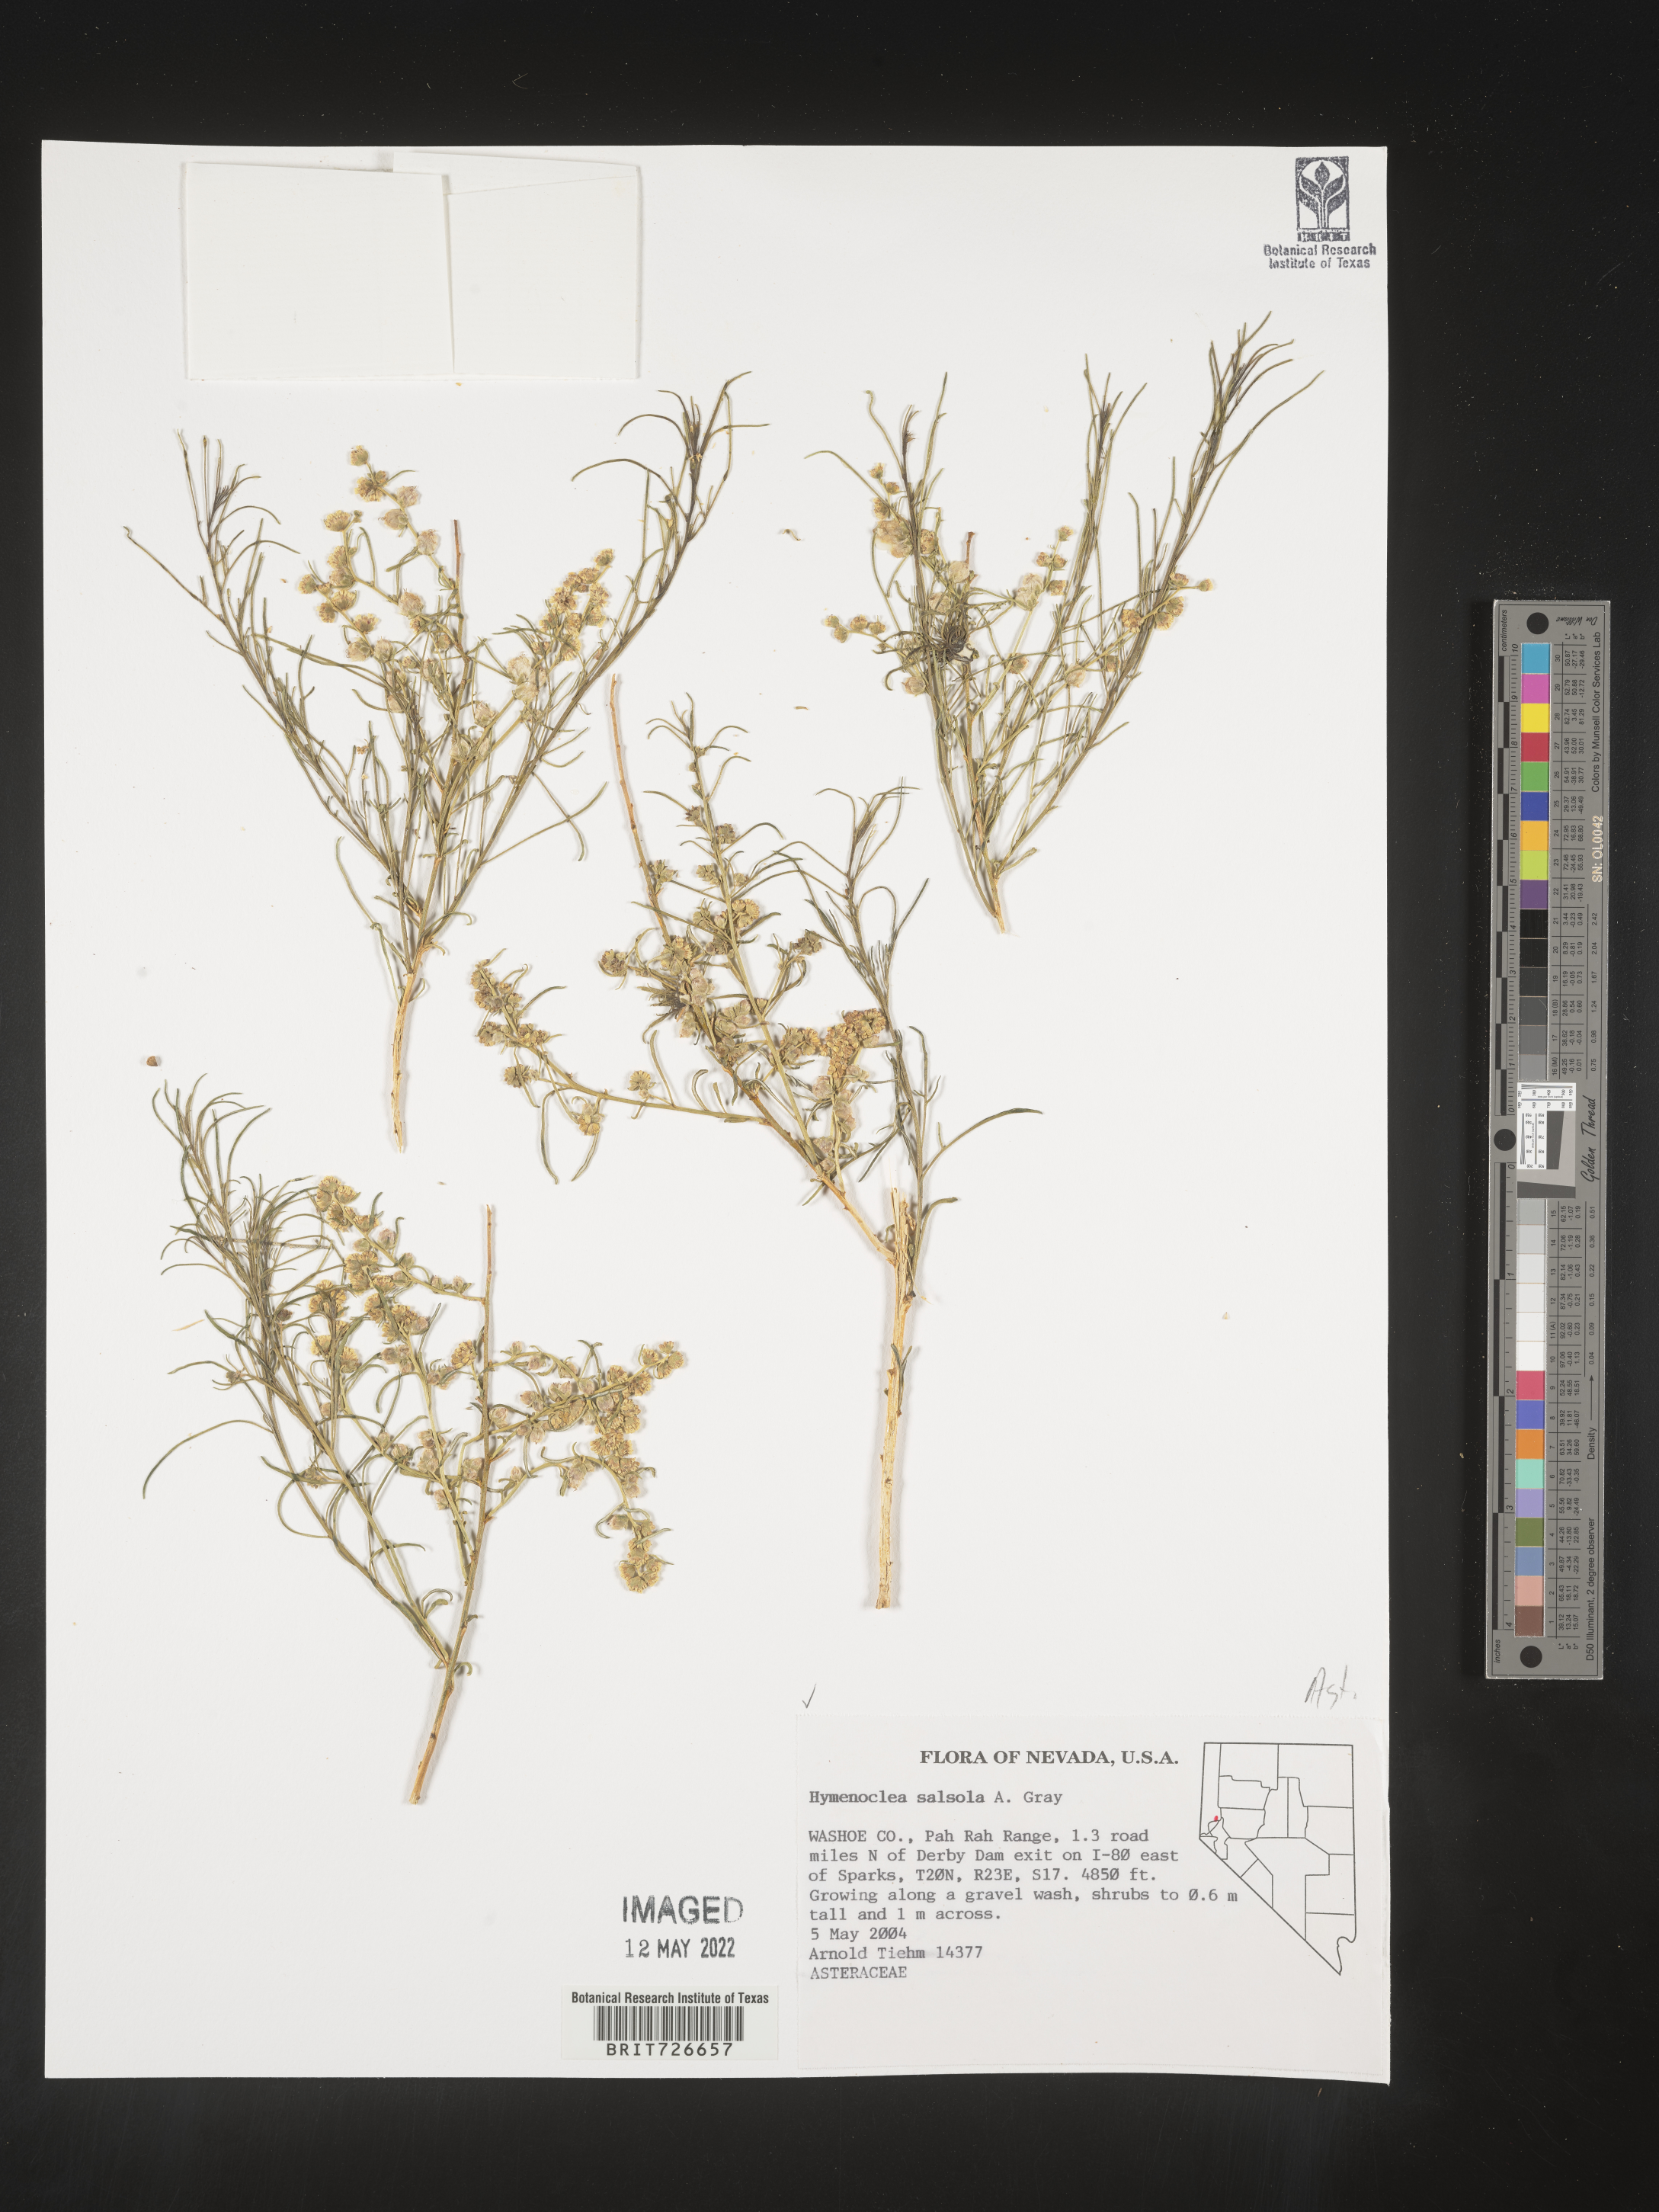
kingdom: Animalia
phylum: Arthropoda
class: Insecta
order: Lepidoptera
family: Sesiidae
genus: Hymenoclea
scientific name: Hymenoclea
